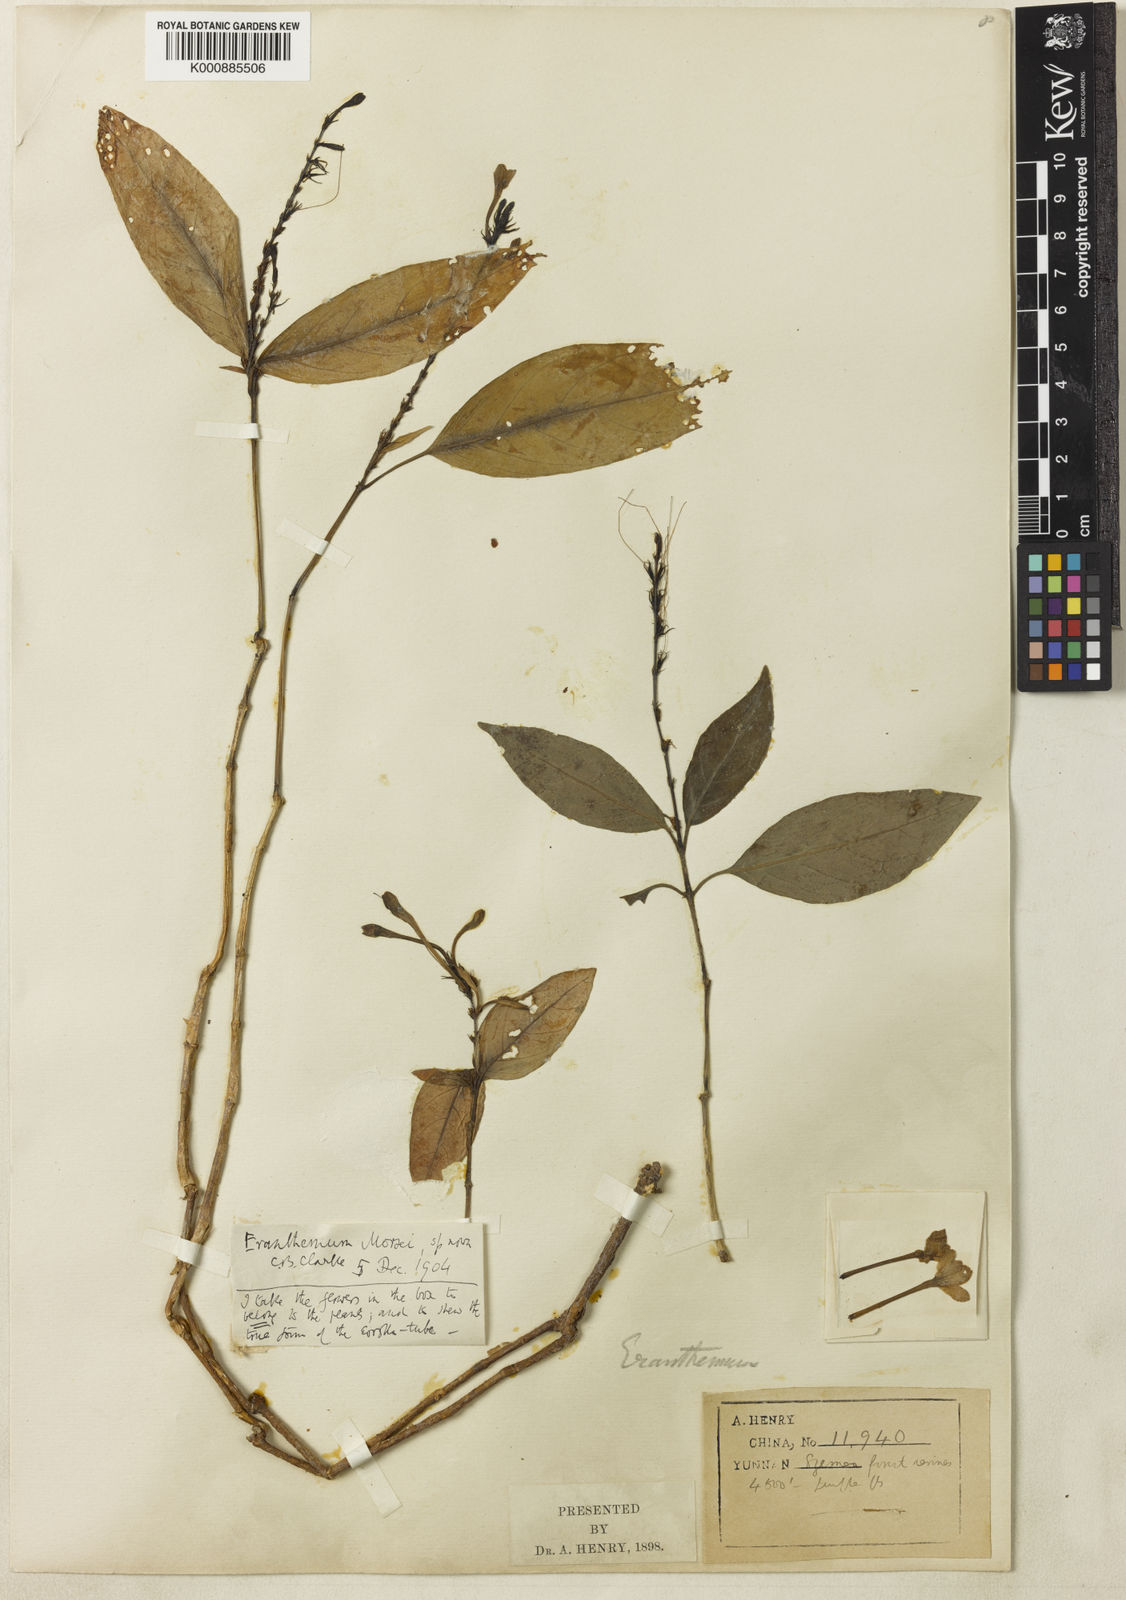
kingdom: Plantae
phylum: Tracheophyta
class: Magnoliopsida
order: Lamiales
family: Acanthaceae
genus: Pseuderanthemum
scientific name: Pseuderanthemum
